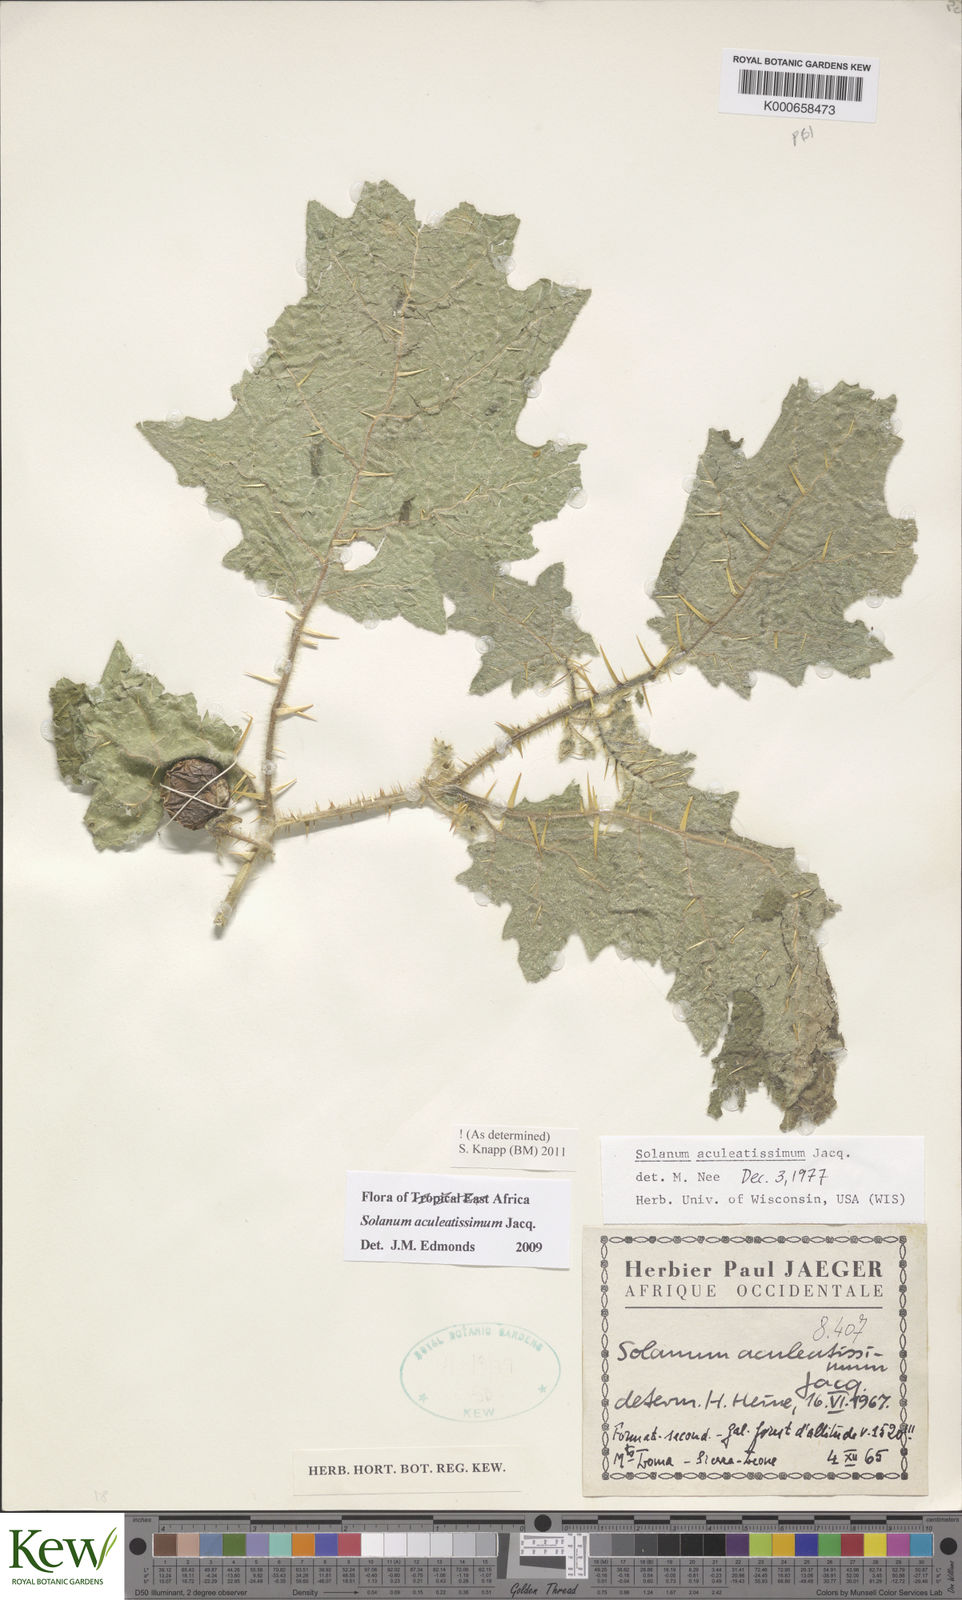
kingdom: Plantae
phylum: Tracheophyta
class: Magnoliopsida
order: Solanales
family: Solanaceae
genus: Solanum
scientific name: Solanum aculeatissimum
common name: Dutch eggplant
